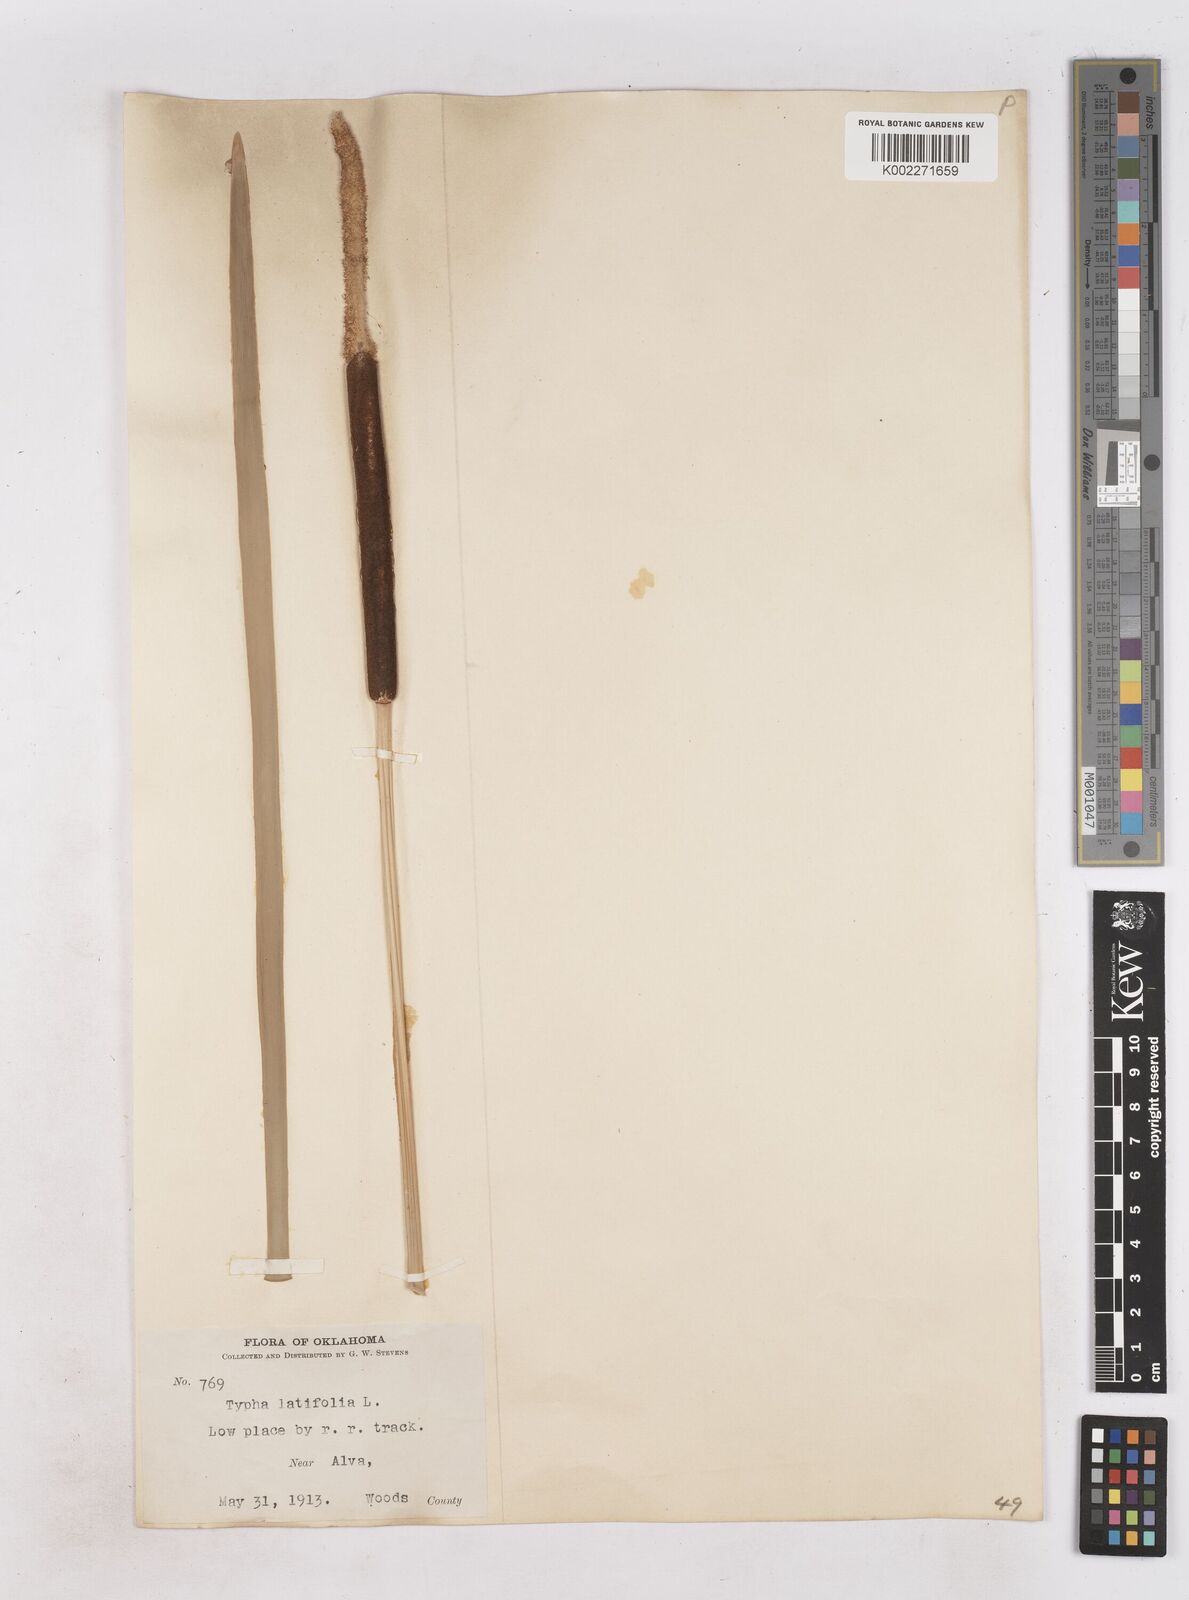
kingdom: Plantae
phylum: Tracheophyta
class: Liliopsida
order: Poales
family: Typhaceae
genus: Typha
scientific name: Typha
